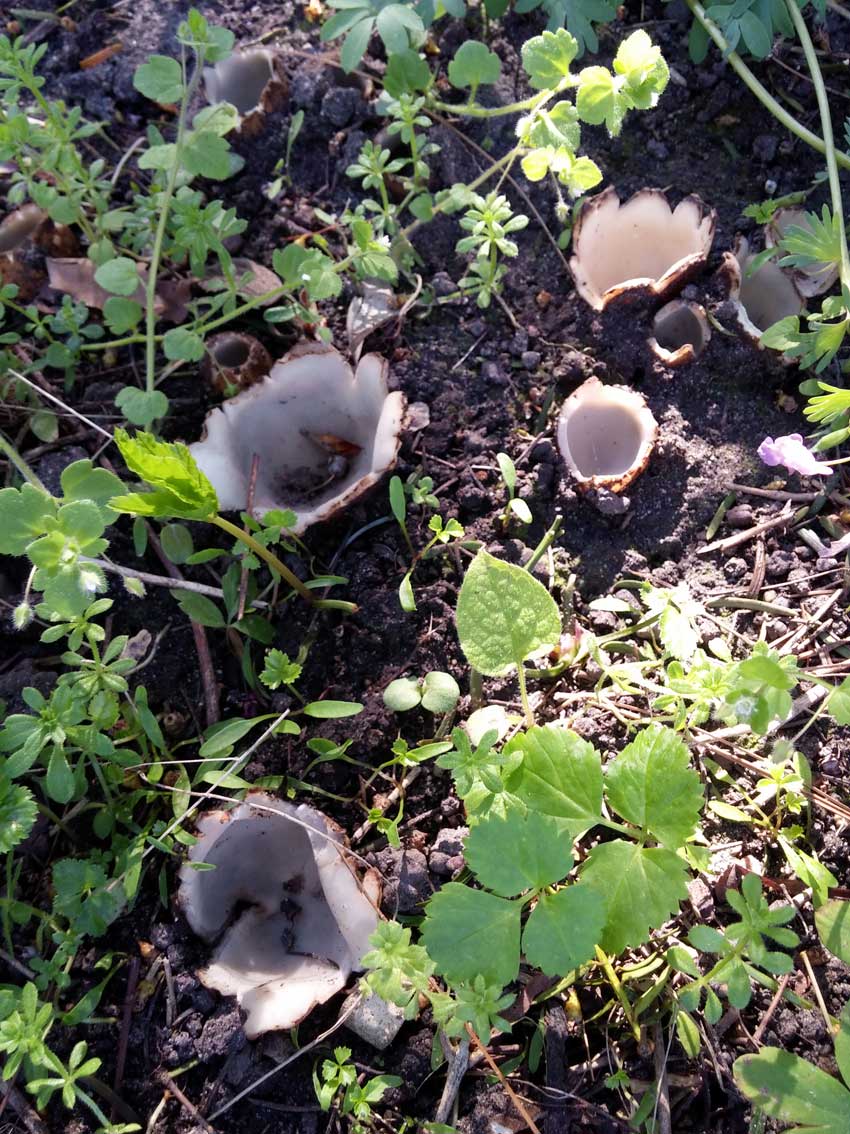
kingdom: Fungi
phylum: Ascomycota
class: Pezizomycetes
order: Pezizales
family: Pyronemataceae
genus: Geopora
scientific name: Geopora sumneriana
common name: vår-jordbæger
